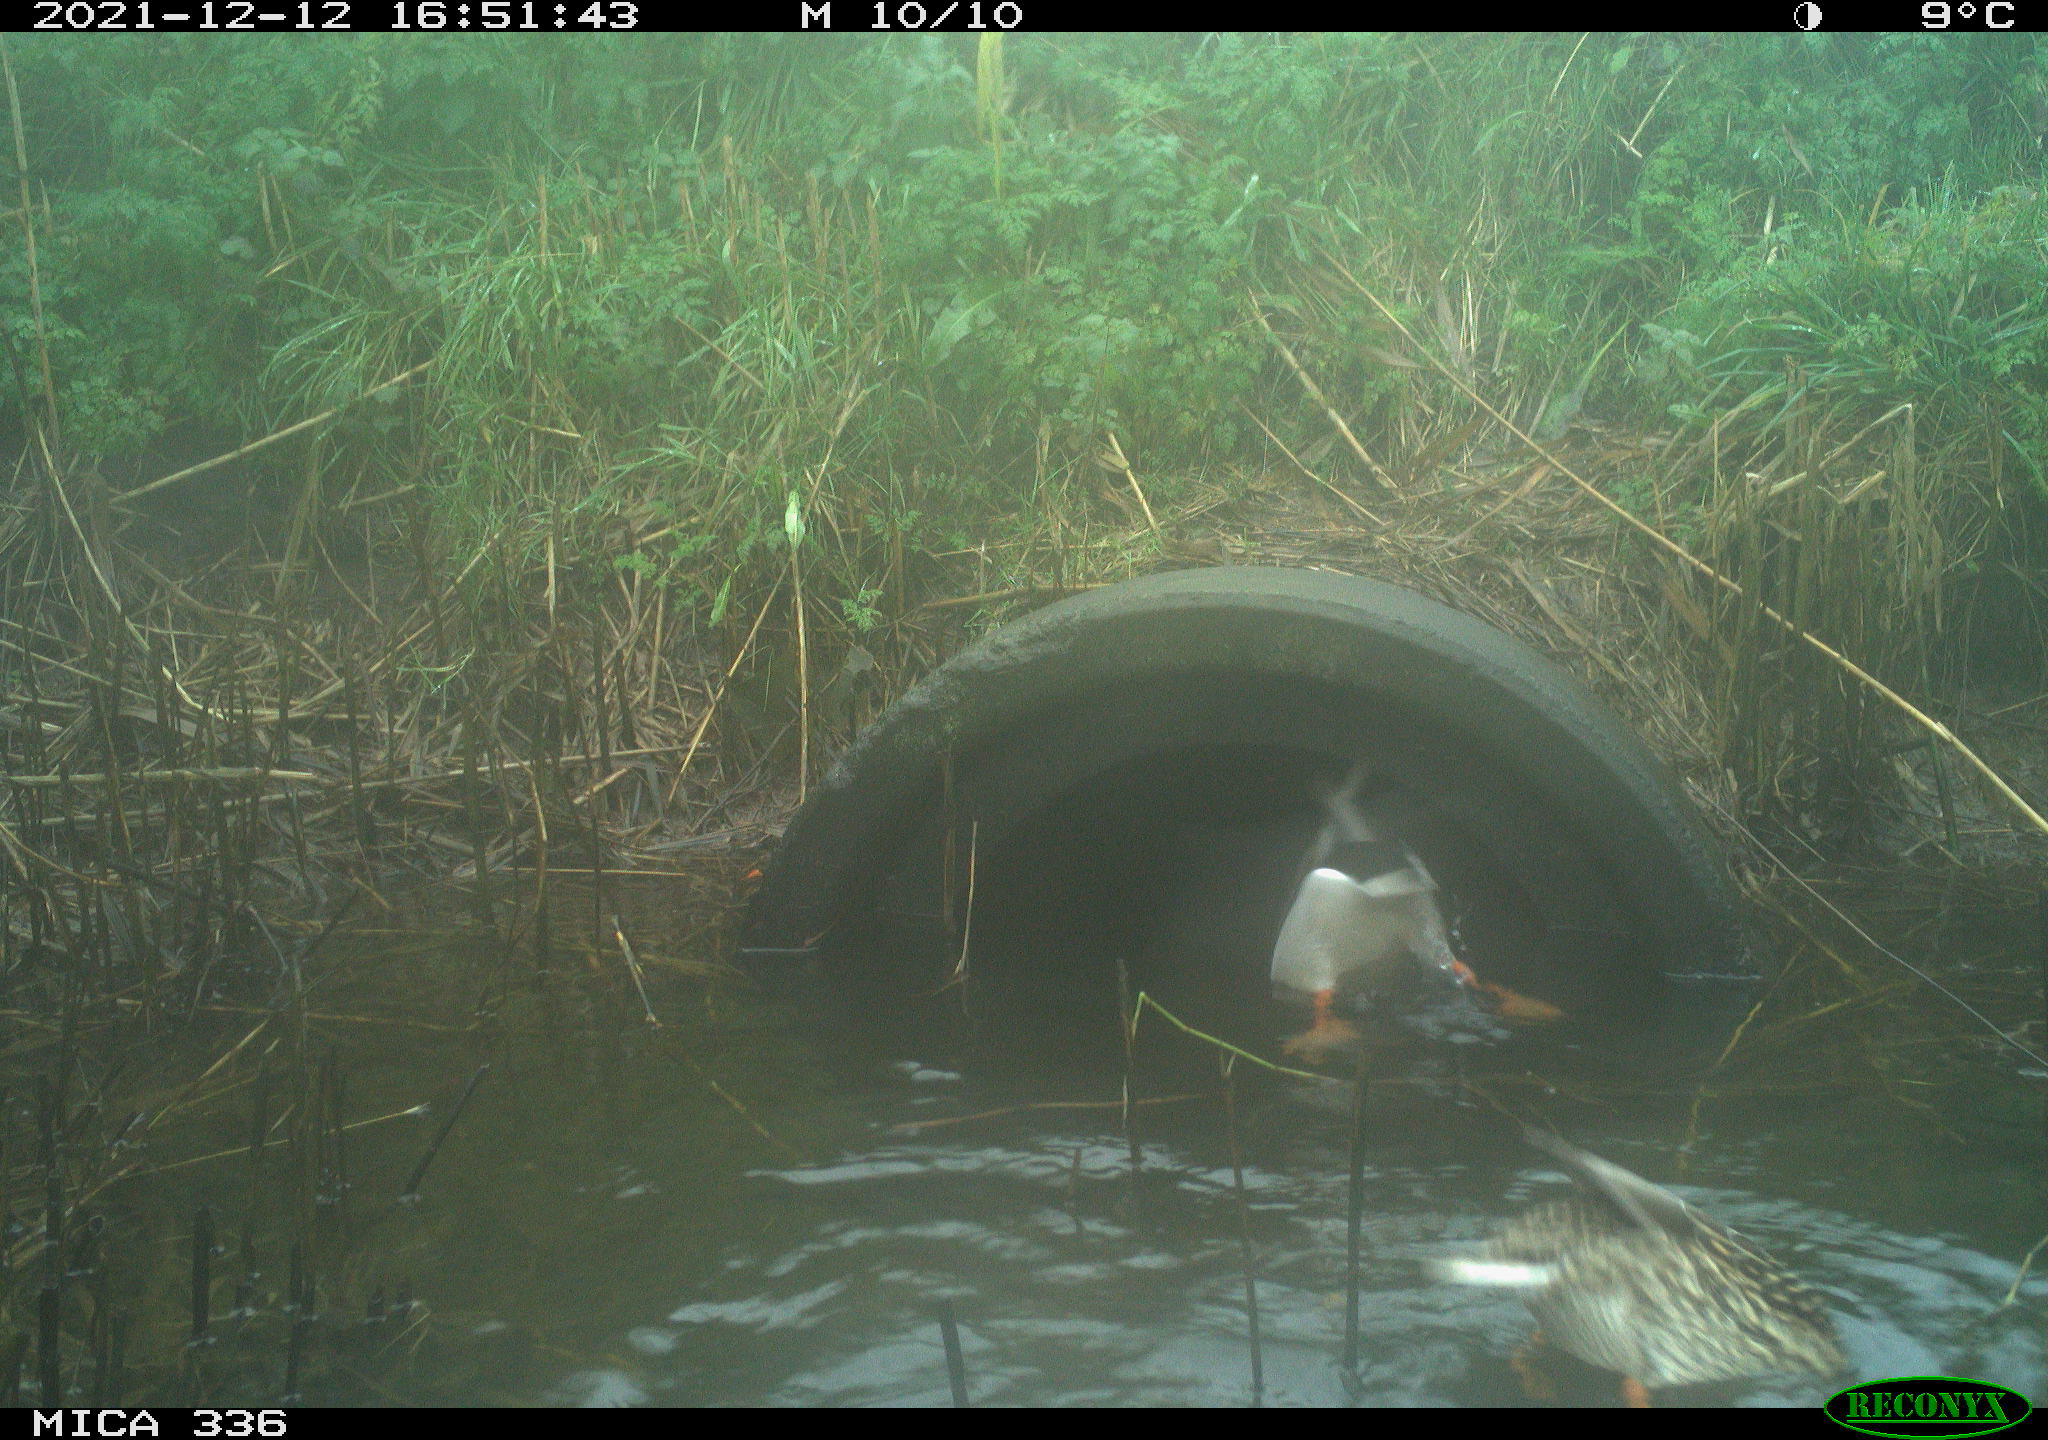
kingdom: Animalia
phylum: Chordata
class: Aves
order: Anseriformes
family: Anatidae
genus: Anas
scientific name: Anas platyrhynchos
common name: Mallard
